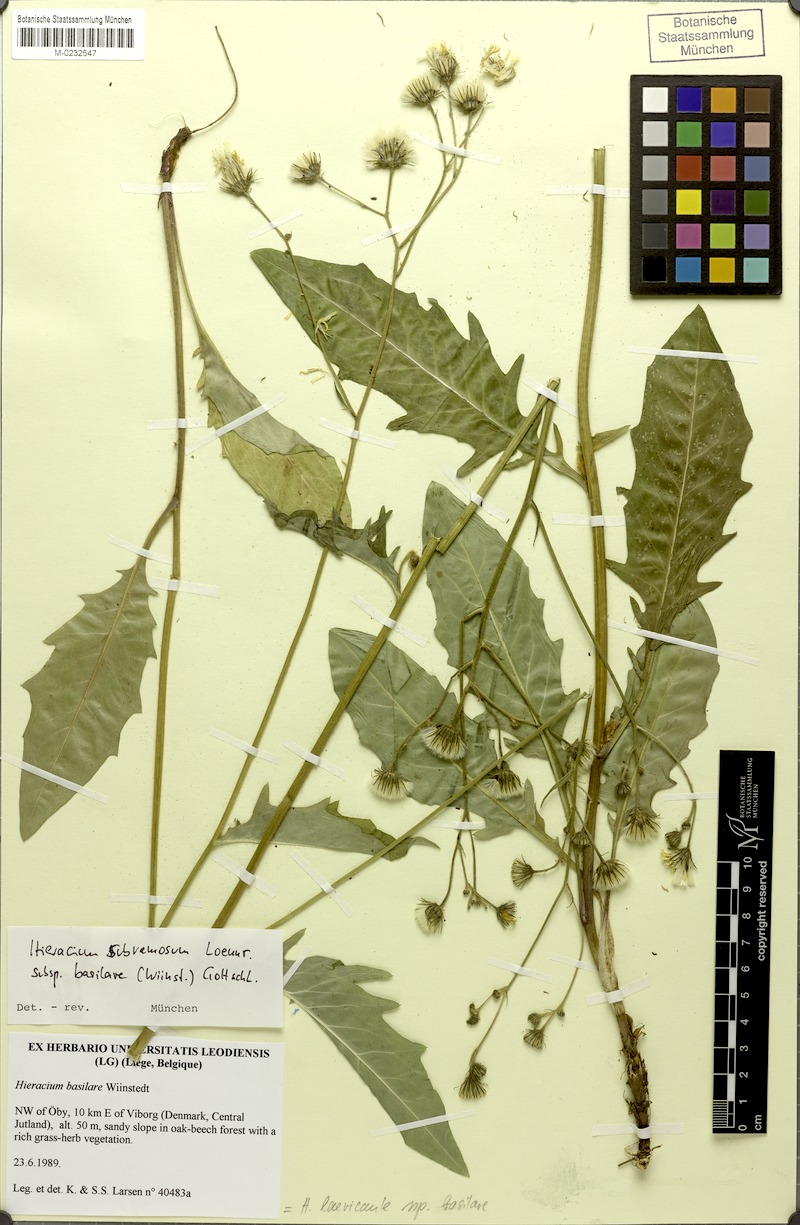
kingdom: Plantae
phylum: Tracheophyta
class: Magnoliopsida
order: Asterales
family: Asteraceae
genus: Hieracium
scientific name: Hieracium subramosum
